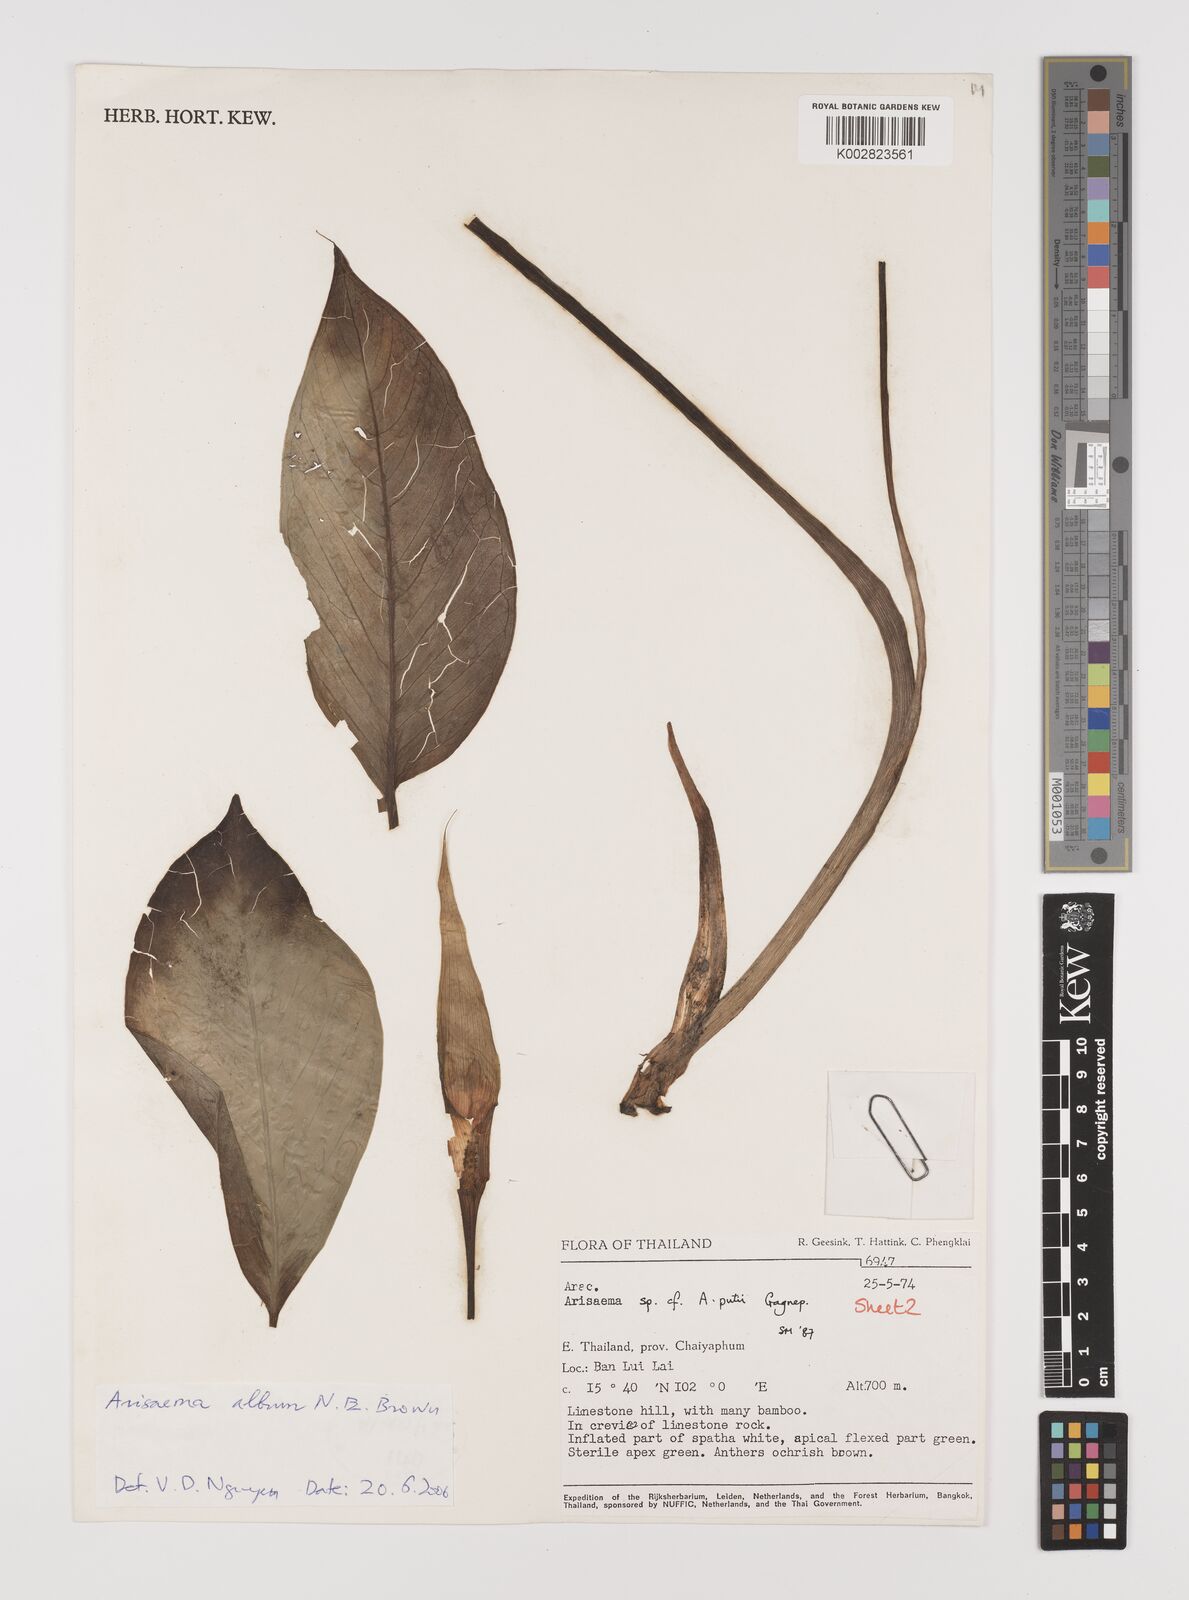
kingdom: Plantae
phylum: Tracheophyta
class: Liliopsida
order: Alismatales
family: Araceae
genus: Arisaema
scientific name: Arisaema album
